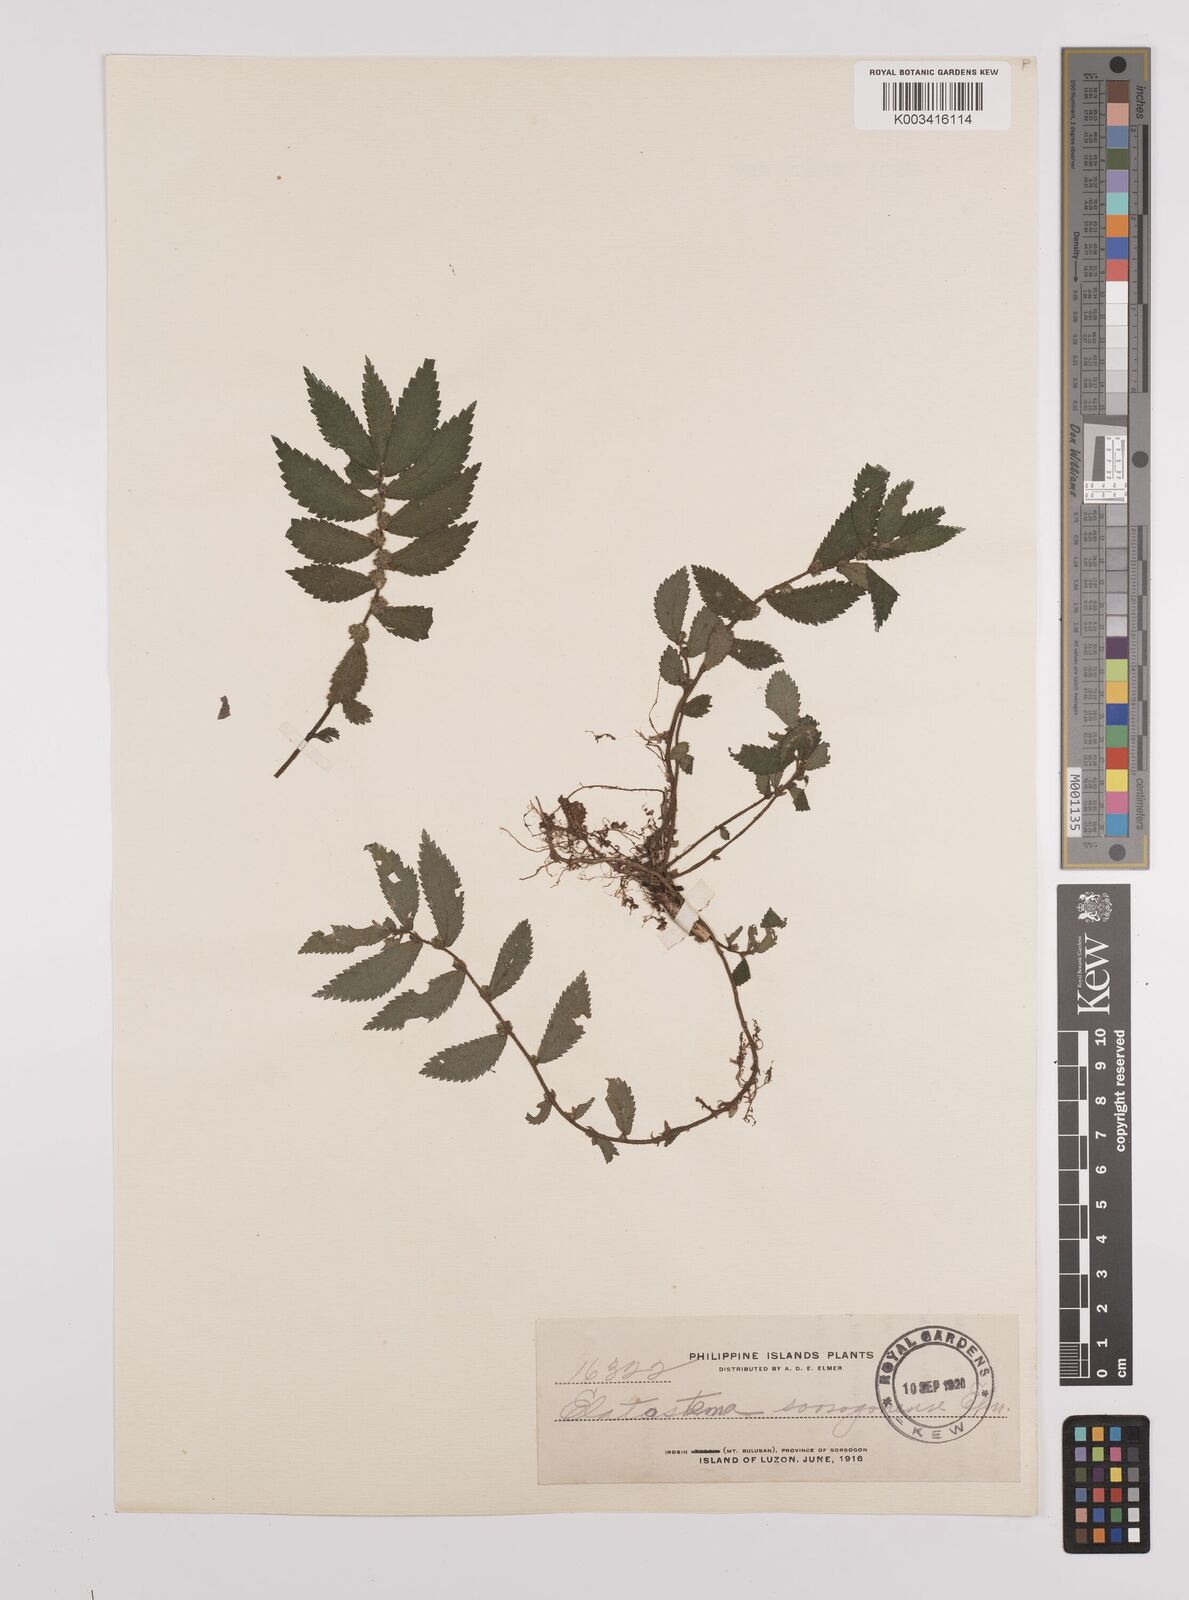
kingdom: Plantae
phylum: Tracheophyta
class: Magnoliopsida
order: Rosales
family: Urticaceae
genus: Elatostema
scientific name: Elatostema sorsogonense
